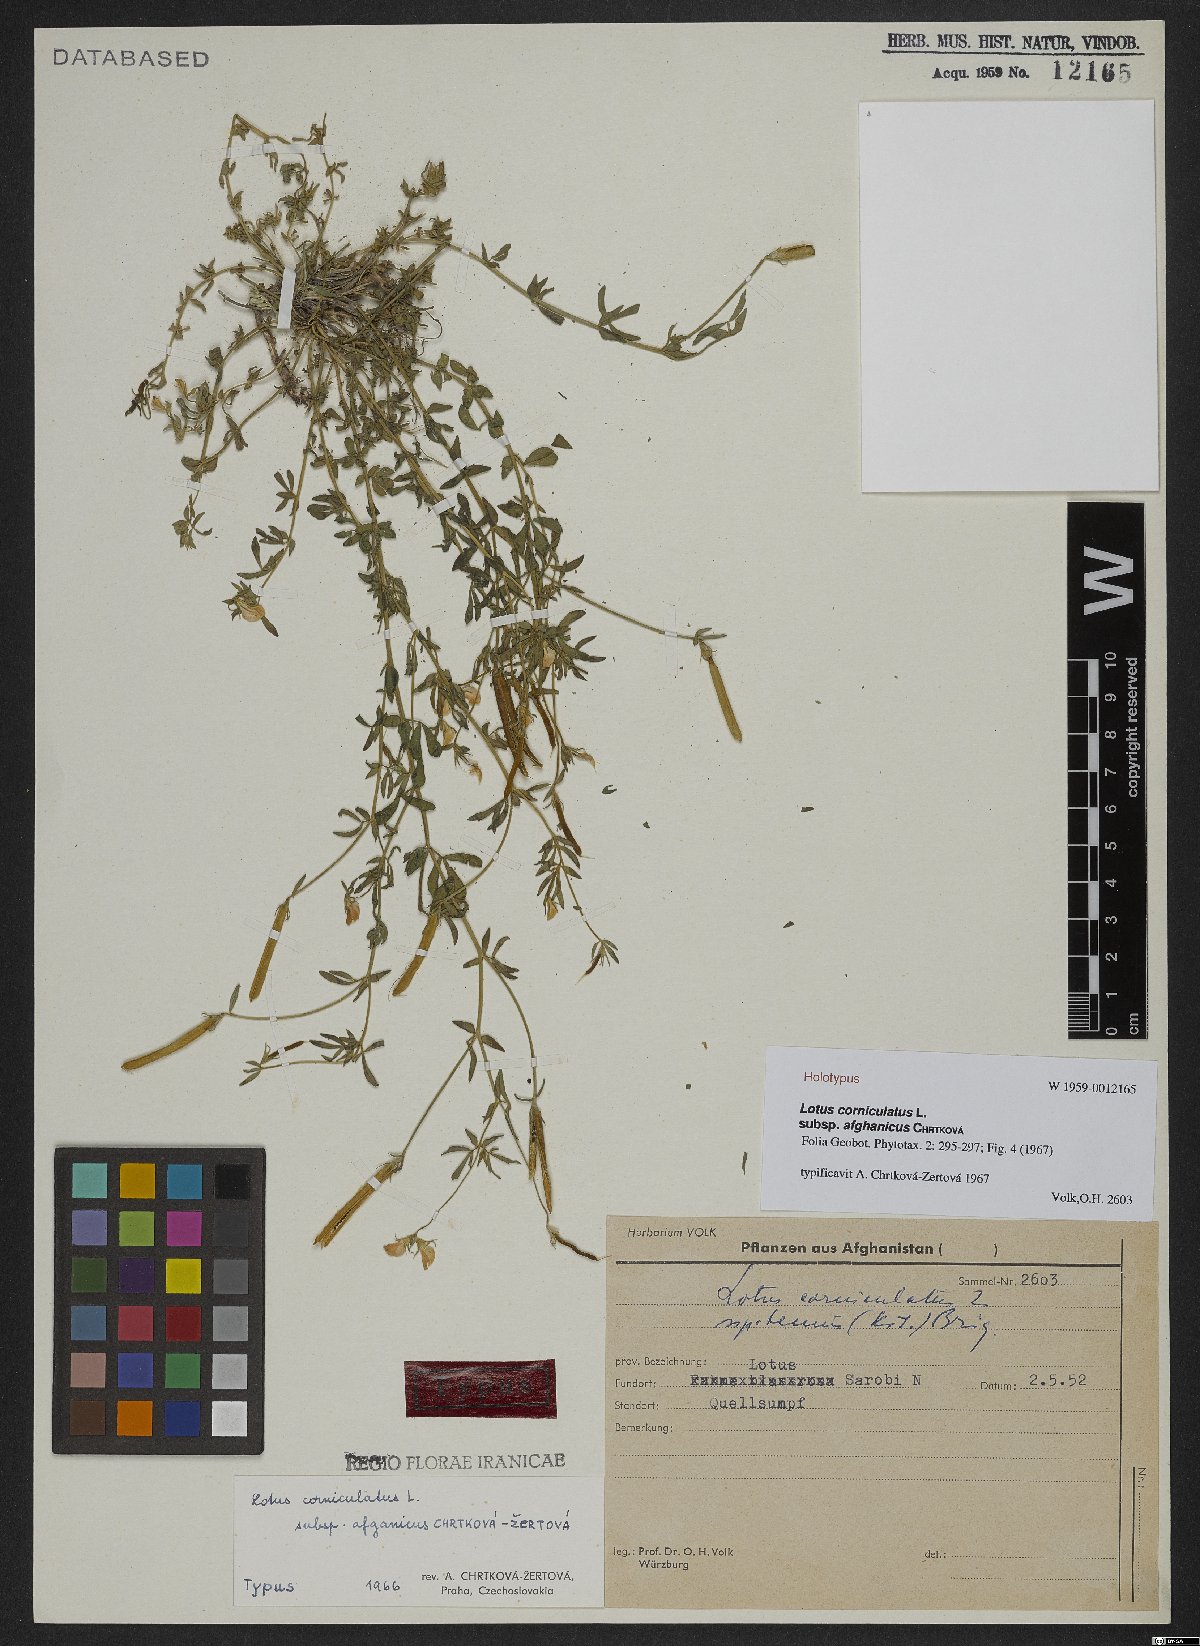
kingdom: Plantae
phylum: Tracheophyta
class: Magnoliopsida
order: Fabales
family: Fabaceae
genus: Lotus
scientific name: Lotus corniculatus
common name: Common bird's-foot-trefoil
